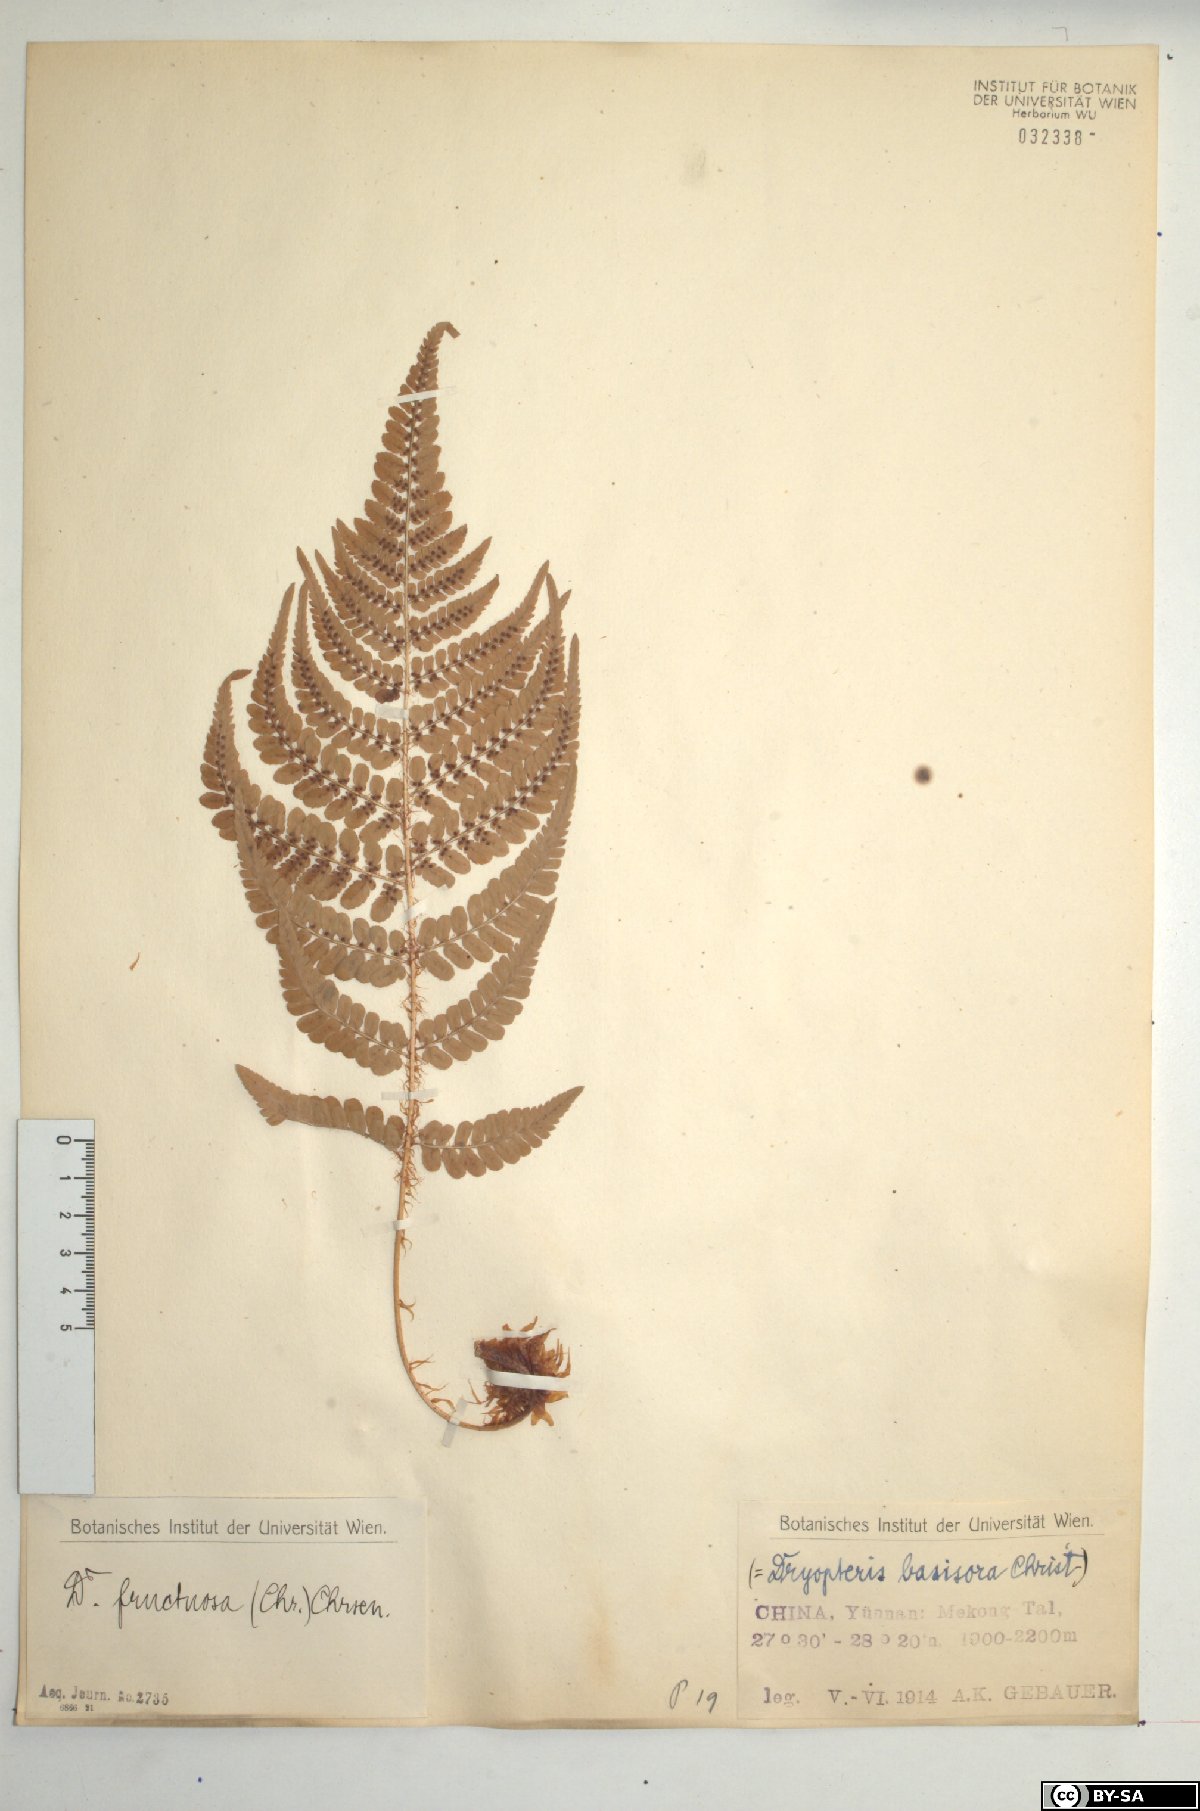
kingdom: Plantae
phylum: Tracheophyta
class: Polypodiopsida
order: Polypodiales
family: Dryopteridaceae
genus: Dryopteris
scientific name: Dryopteris fructuosa
